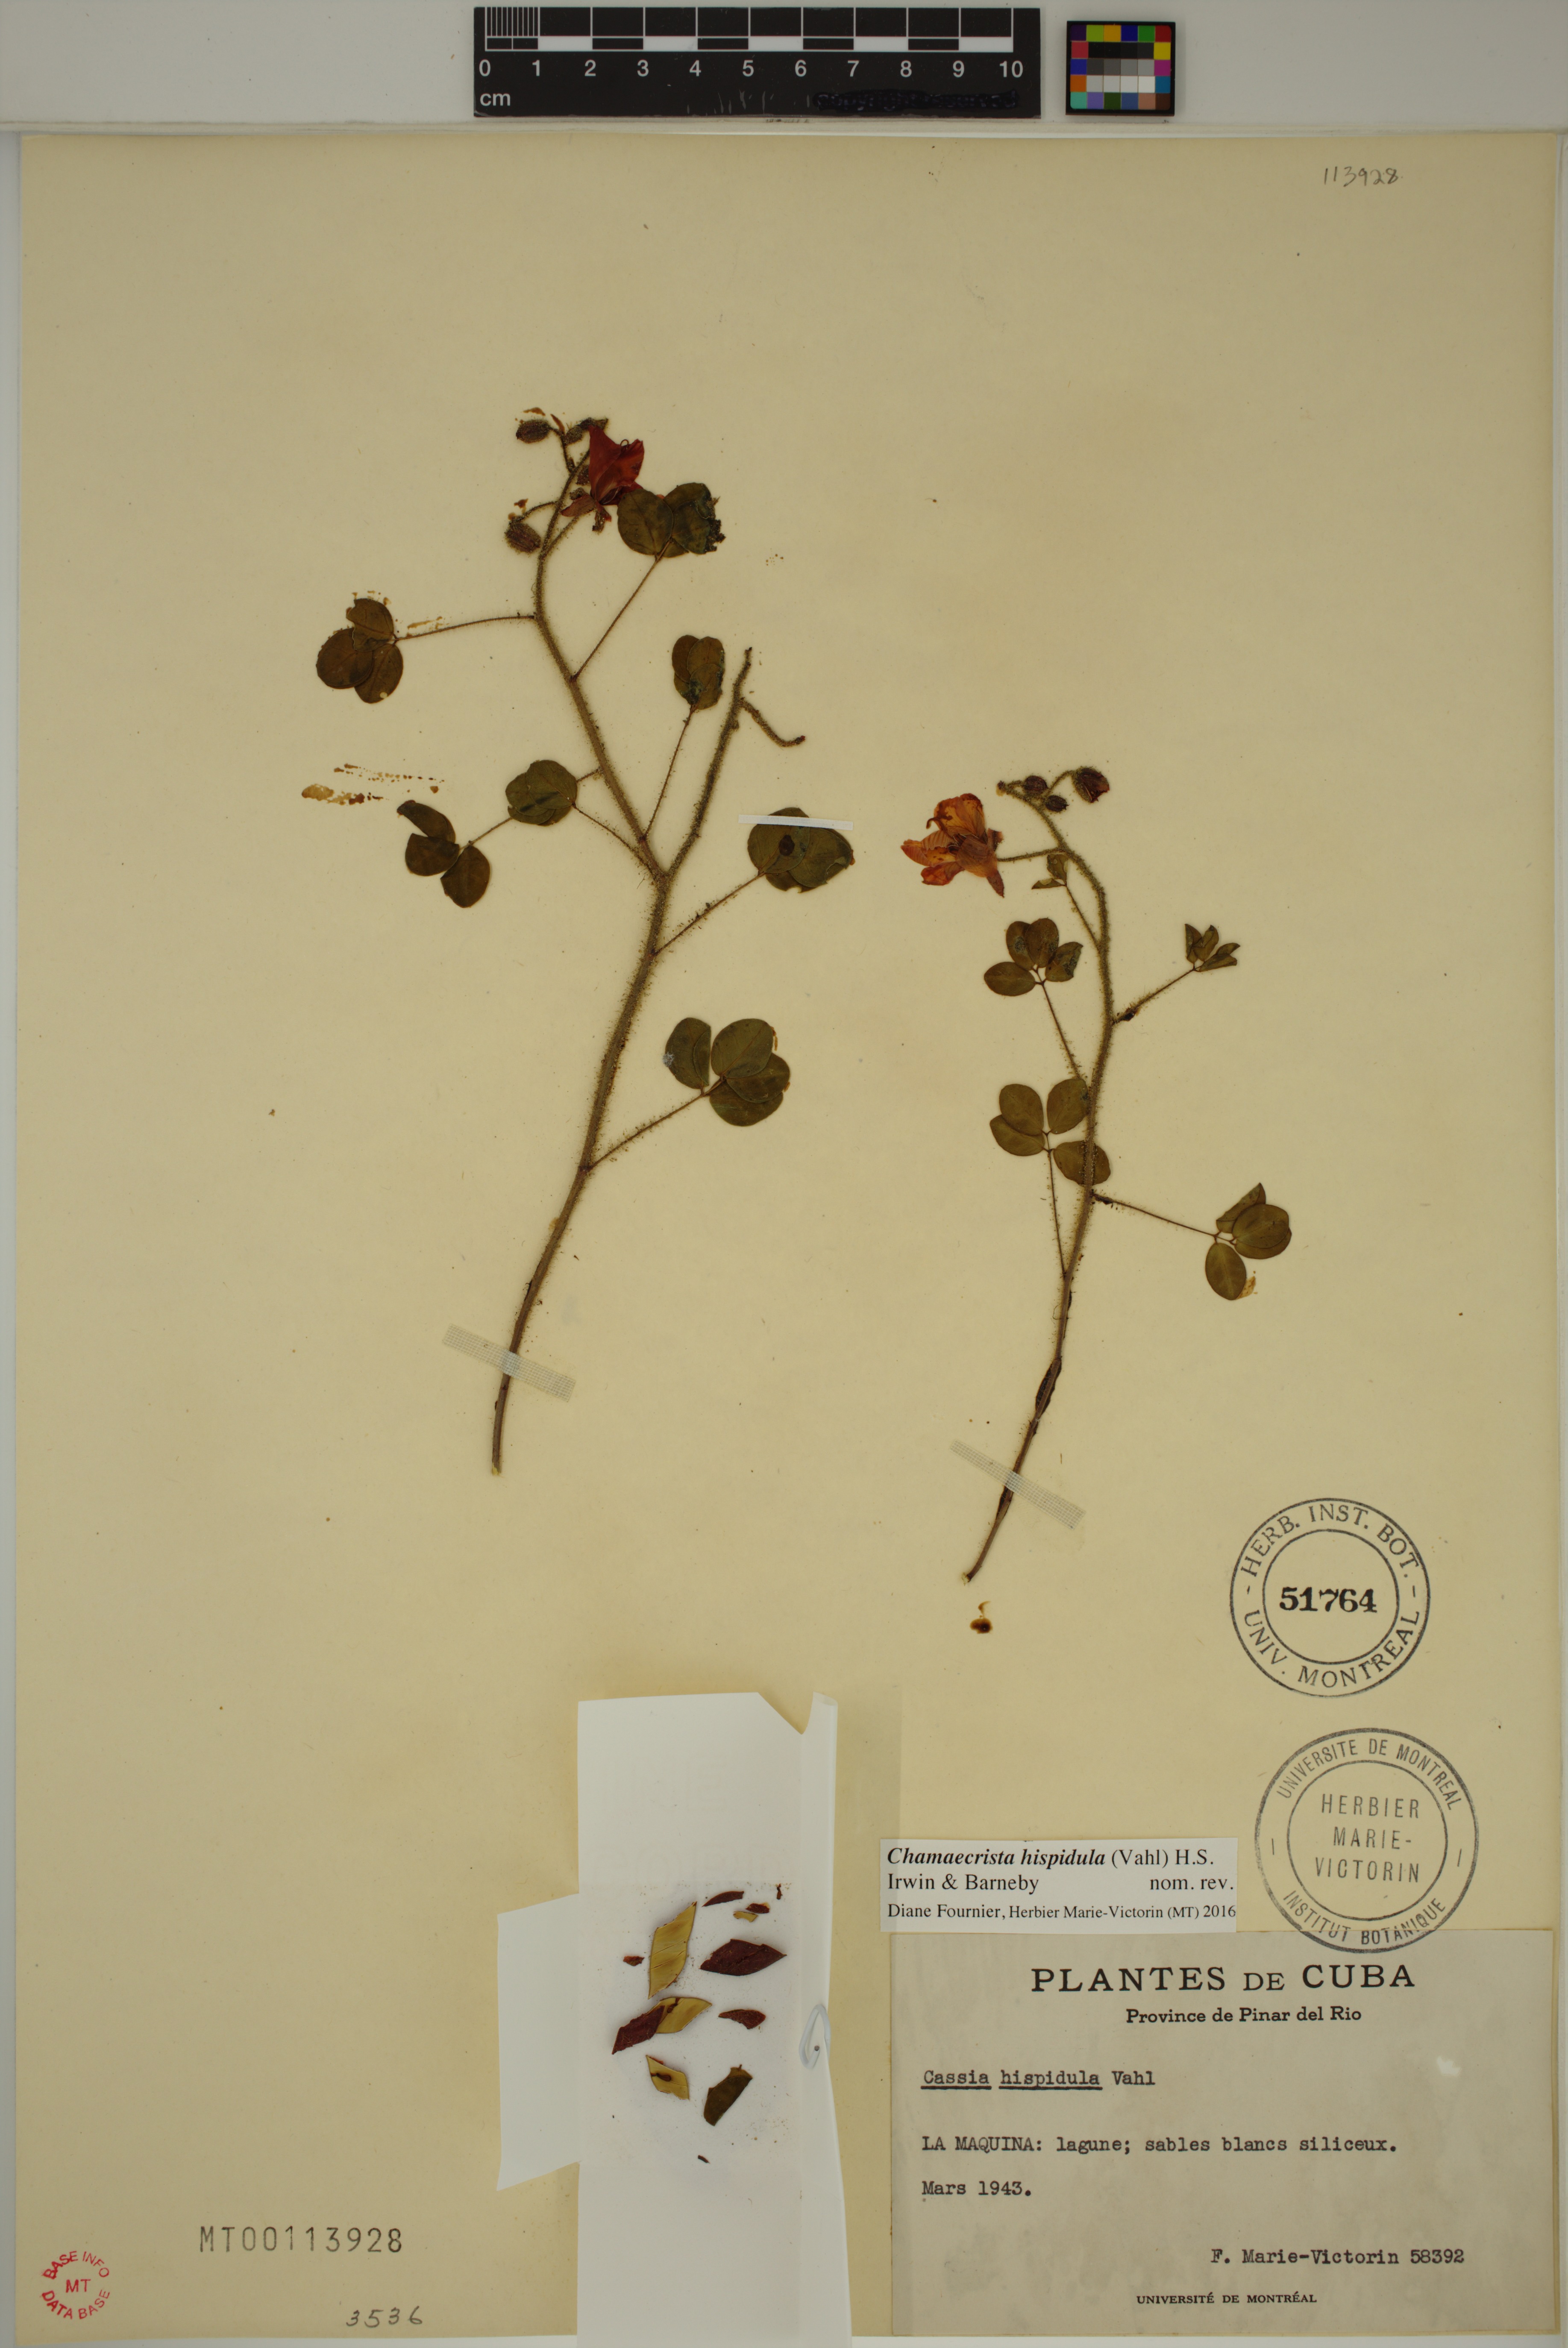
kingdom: Plantae
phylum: Tracheophyta
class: Magnoliopsida
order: Fabales
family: Fabaceae
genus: Chamaecrista
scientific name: Chamaecrista hispidula
